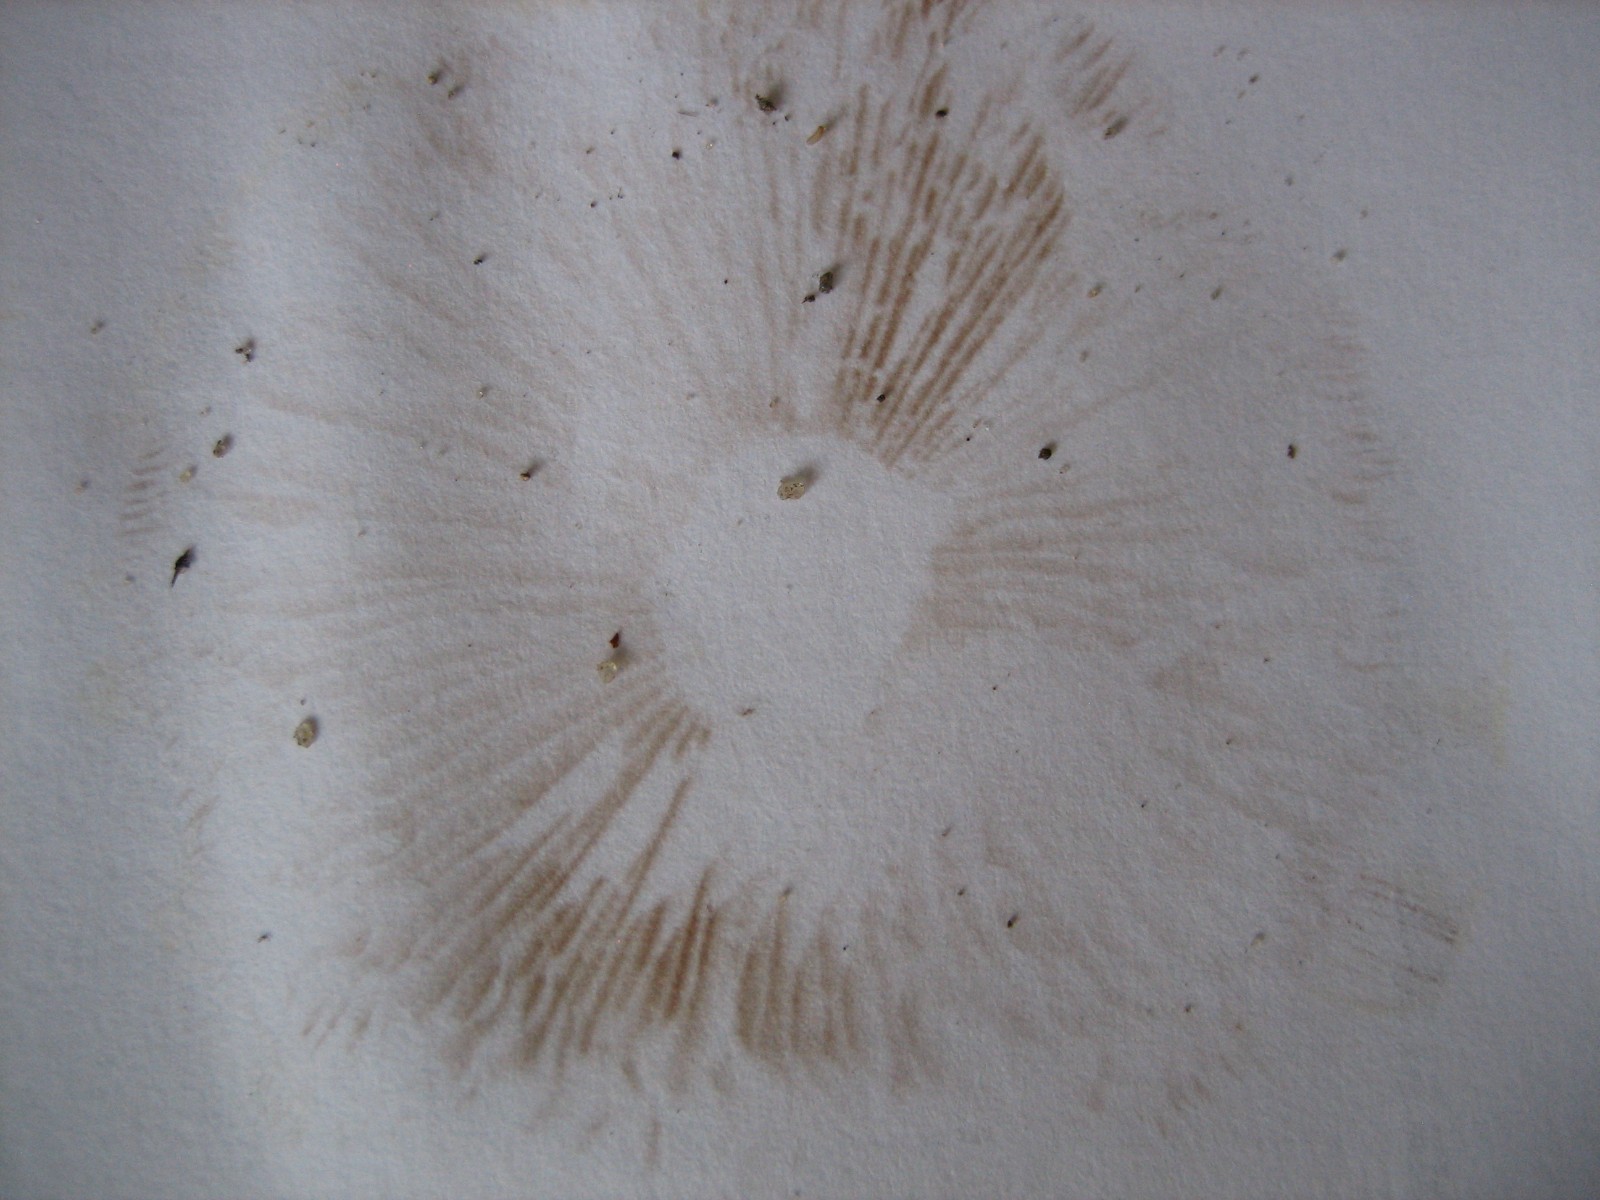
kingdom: Fungi
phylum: Basidiomycota
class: Agaricomycetes
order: Agaricales
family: Cortinariaceae
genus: Cortinarius
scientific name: Cortinarius
